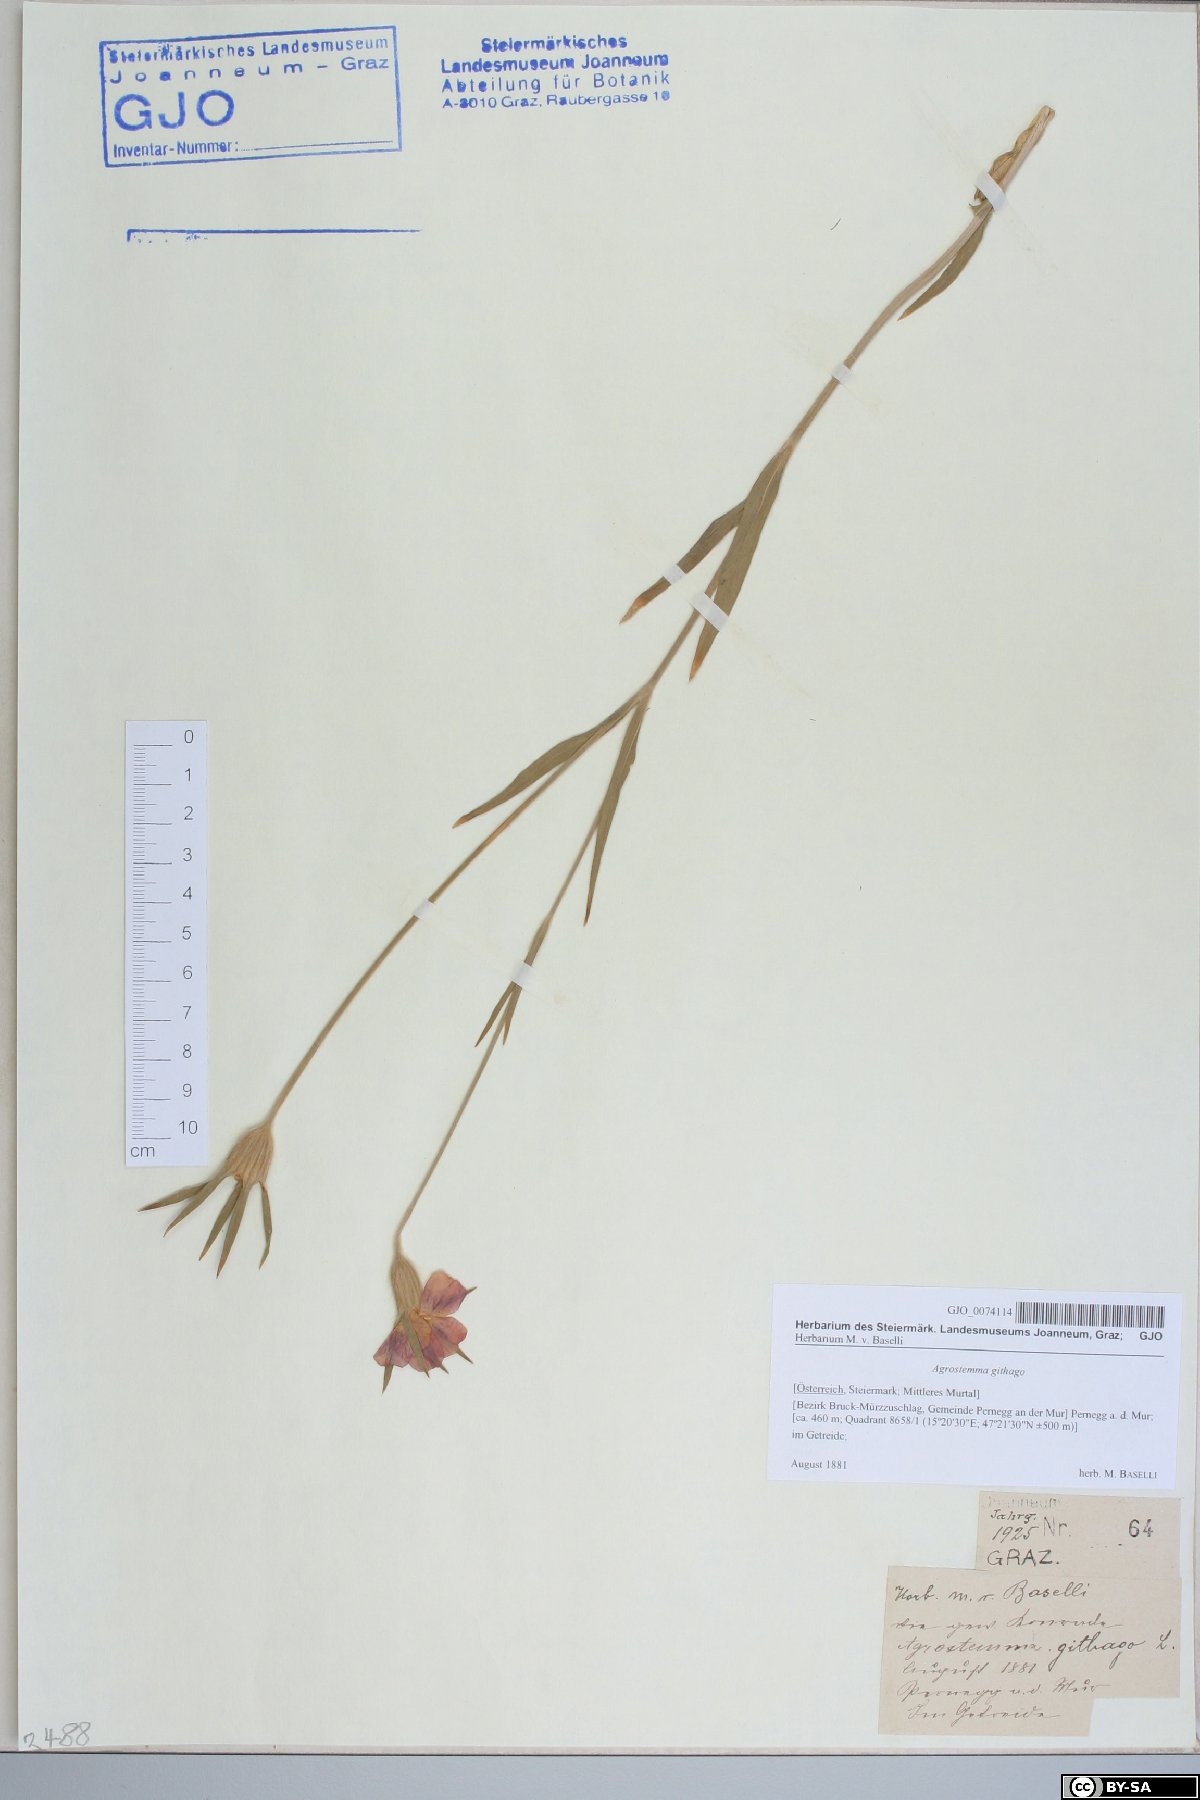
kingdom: Plantae
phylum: Tracheophyta
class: Magnoliopsida
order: Caryophyllales
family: Caryophyllaceae
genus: Agrostemma
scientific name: Agrostemma githago
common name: Common corncockle
